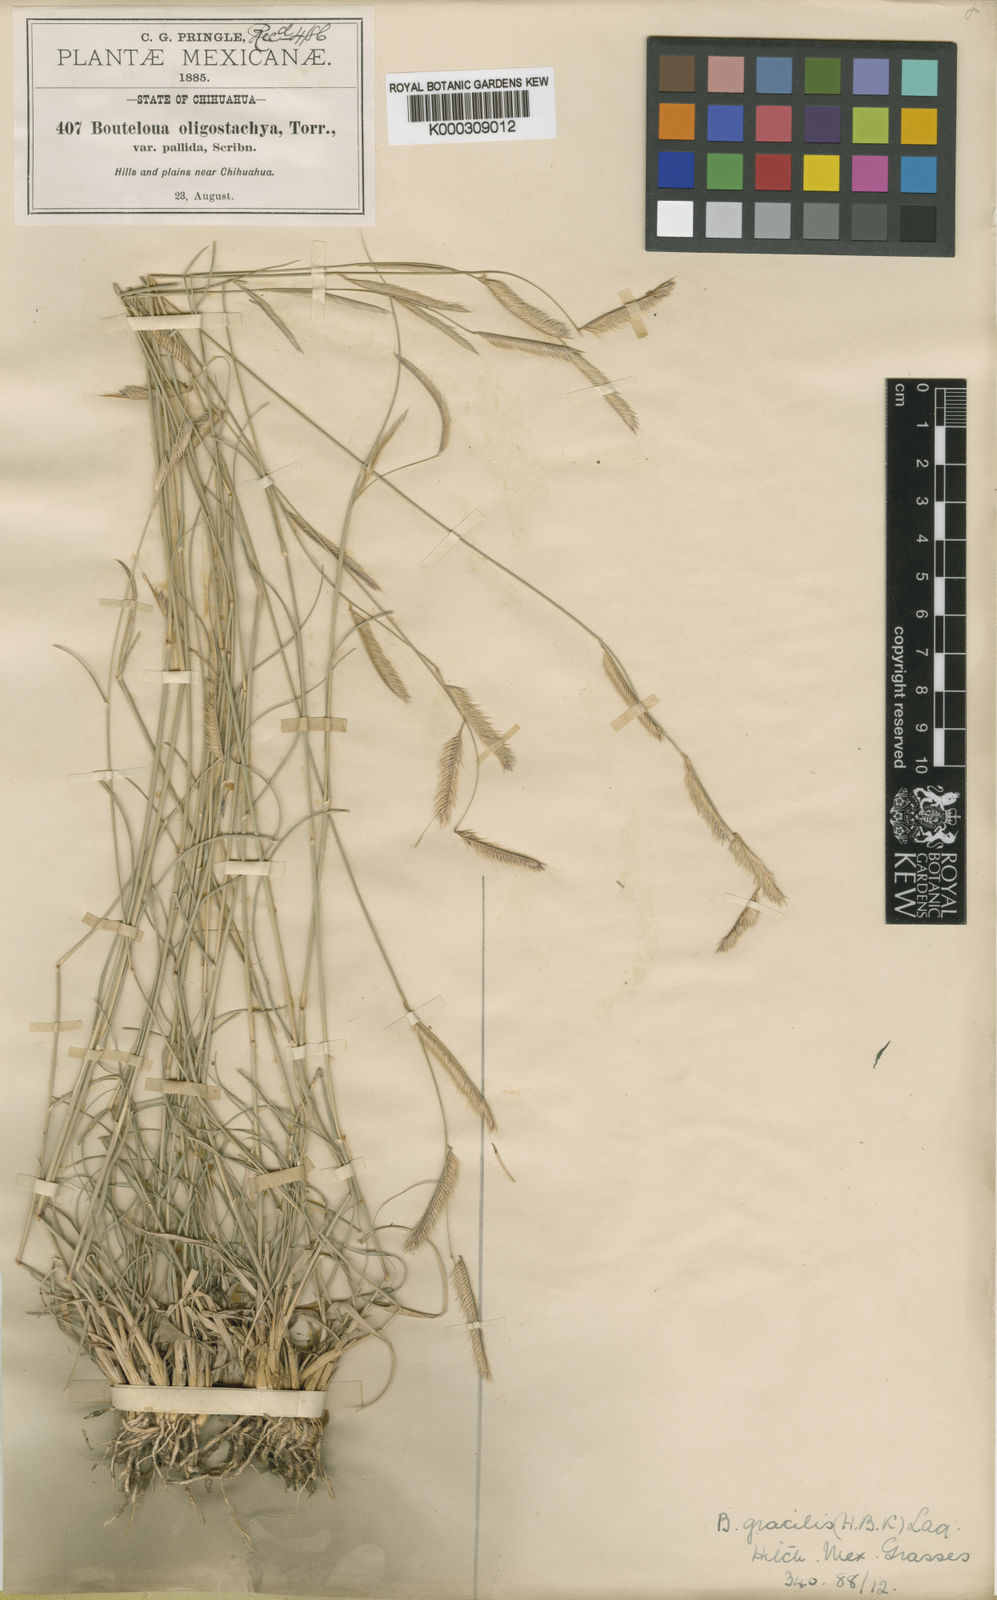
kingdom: Plantae
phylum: Tracheophyta
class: Liliopsida
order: Poales
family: Poaceae
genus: Bouteloua
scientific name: Bouteloua
